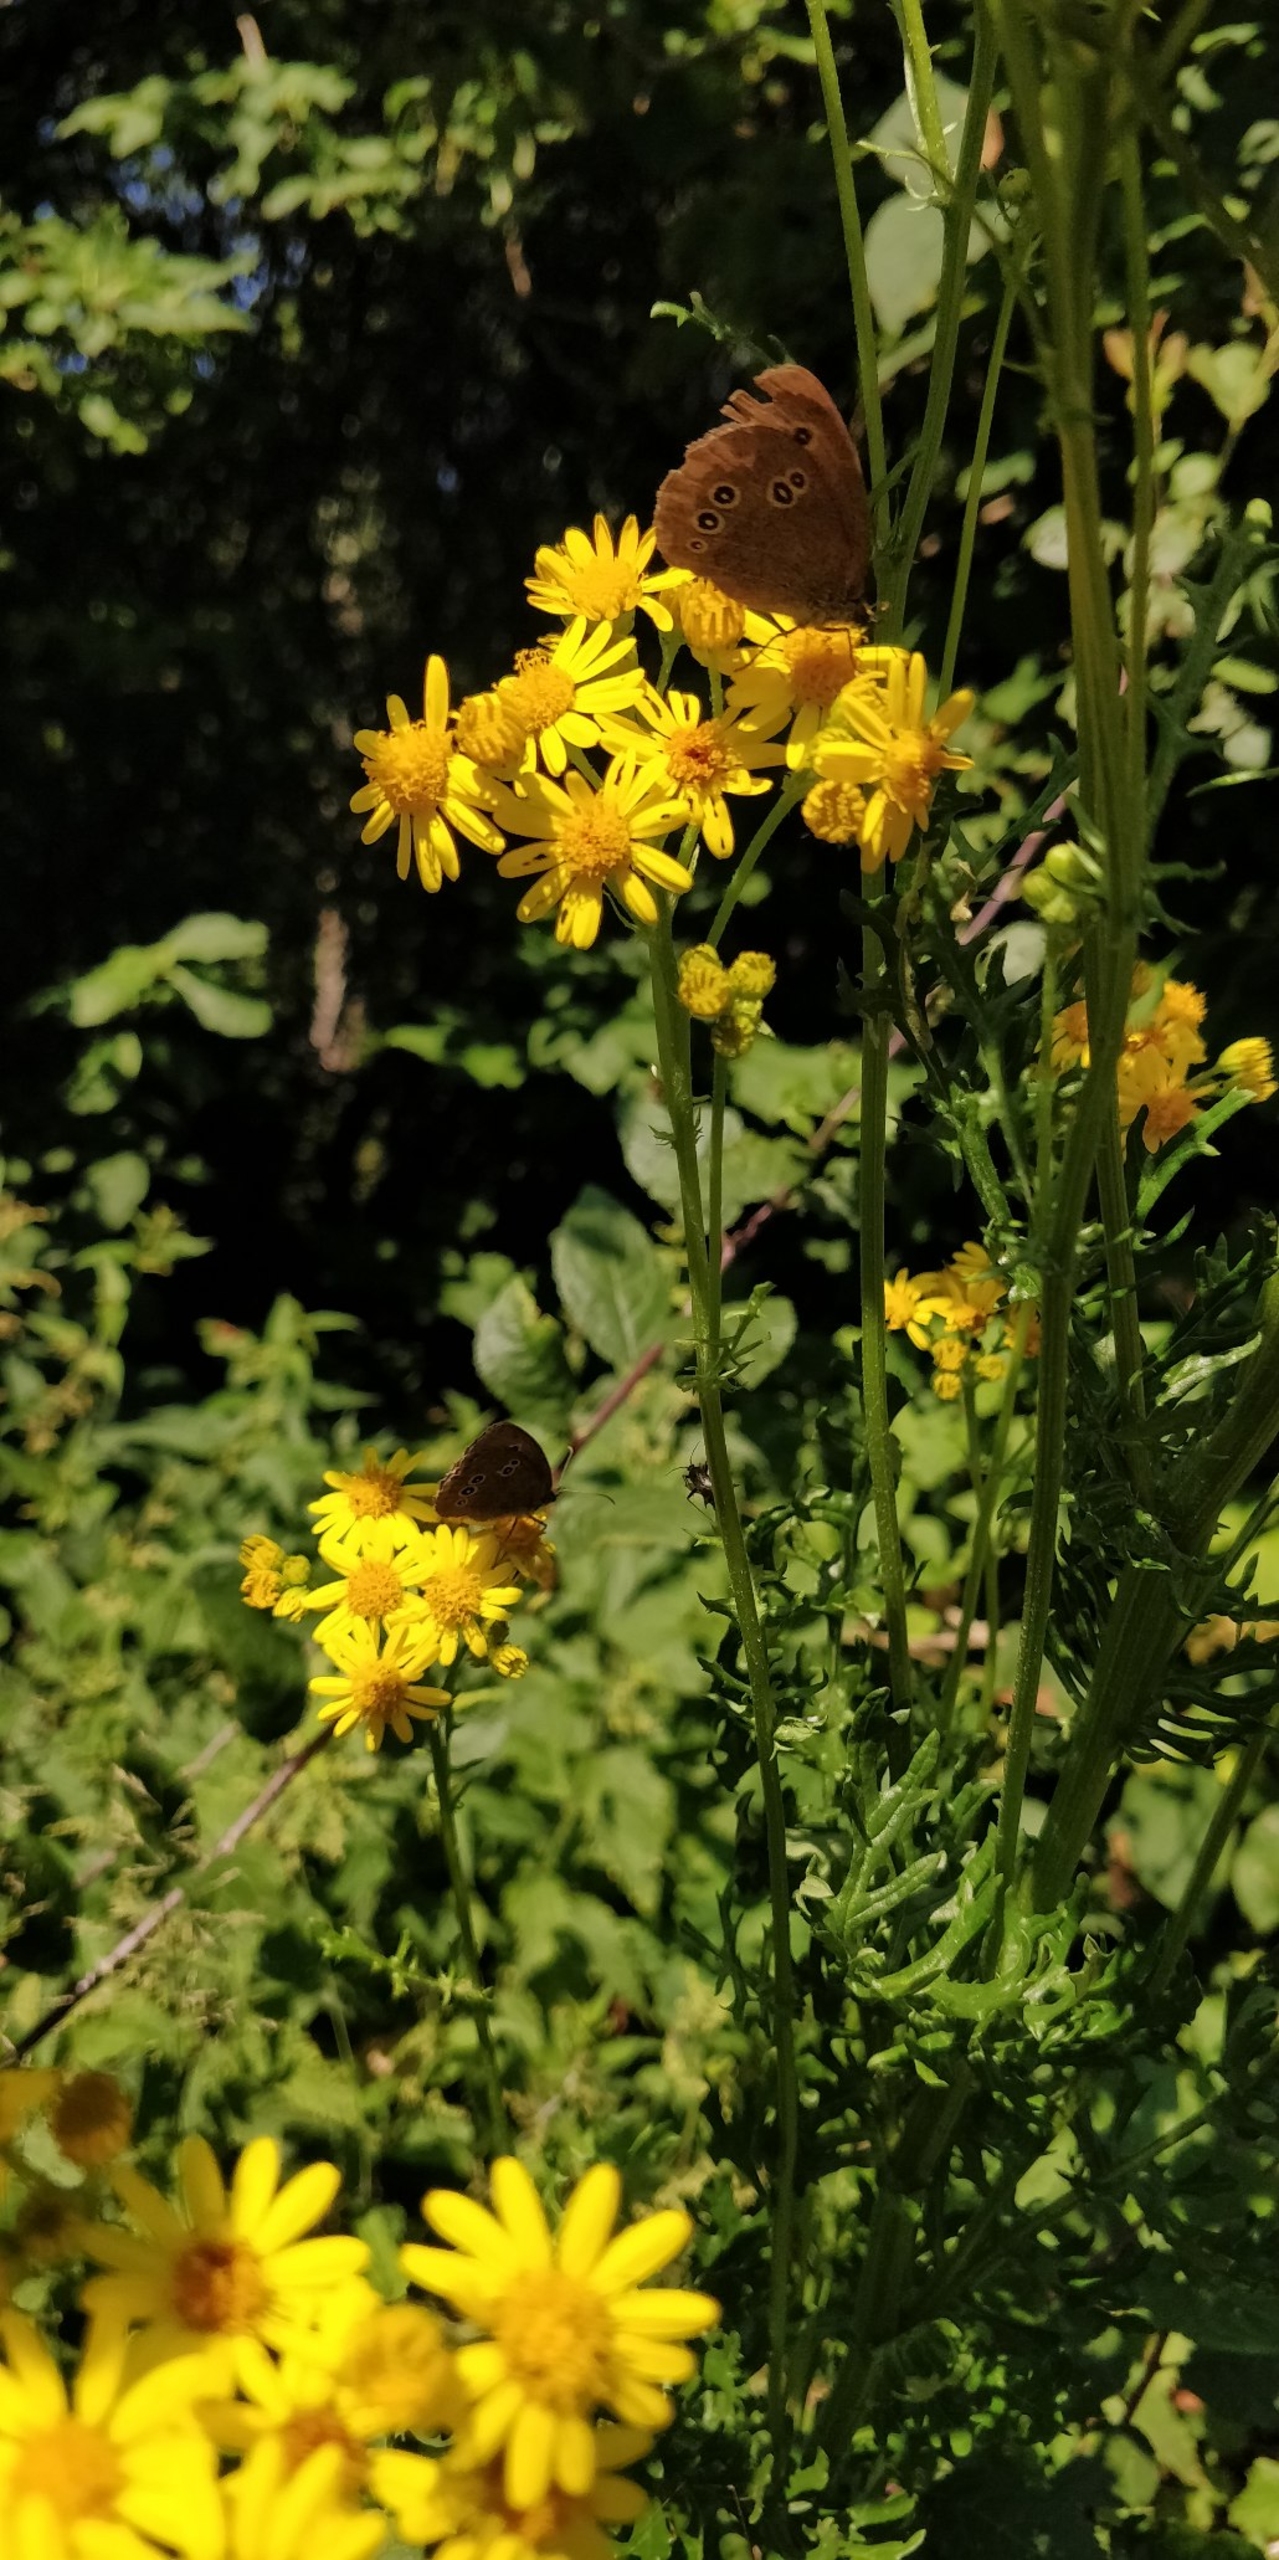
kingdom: Animalia
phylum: Arthropoda
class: Insecta
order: Lepidoptera
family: Nymphalidae
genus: Aphantopus
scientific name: Aphantopus hyperantus
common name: Engrandøje
